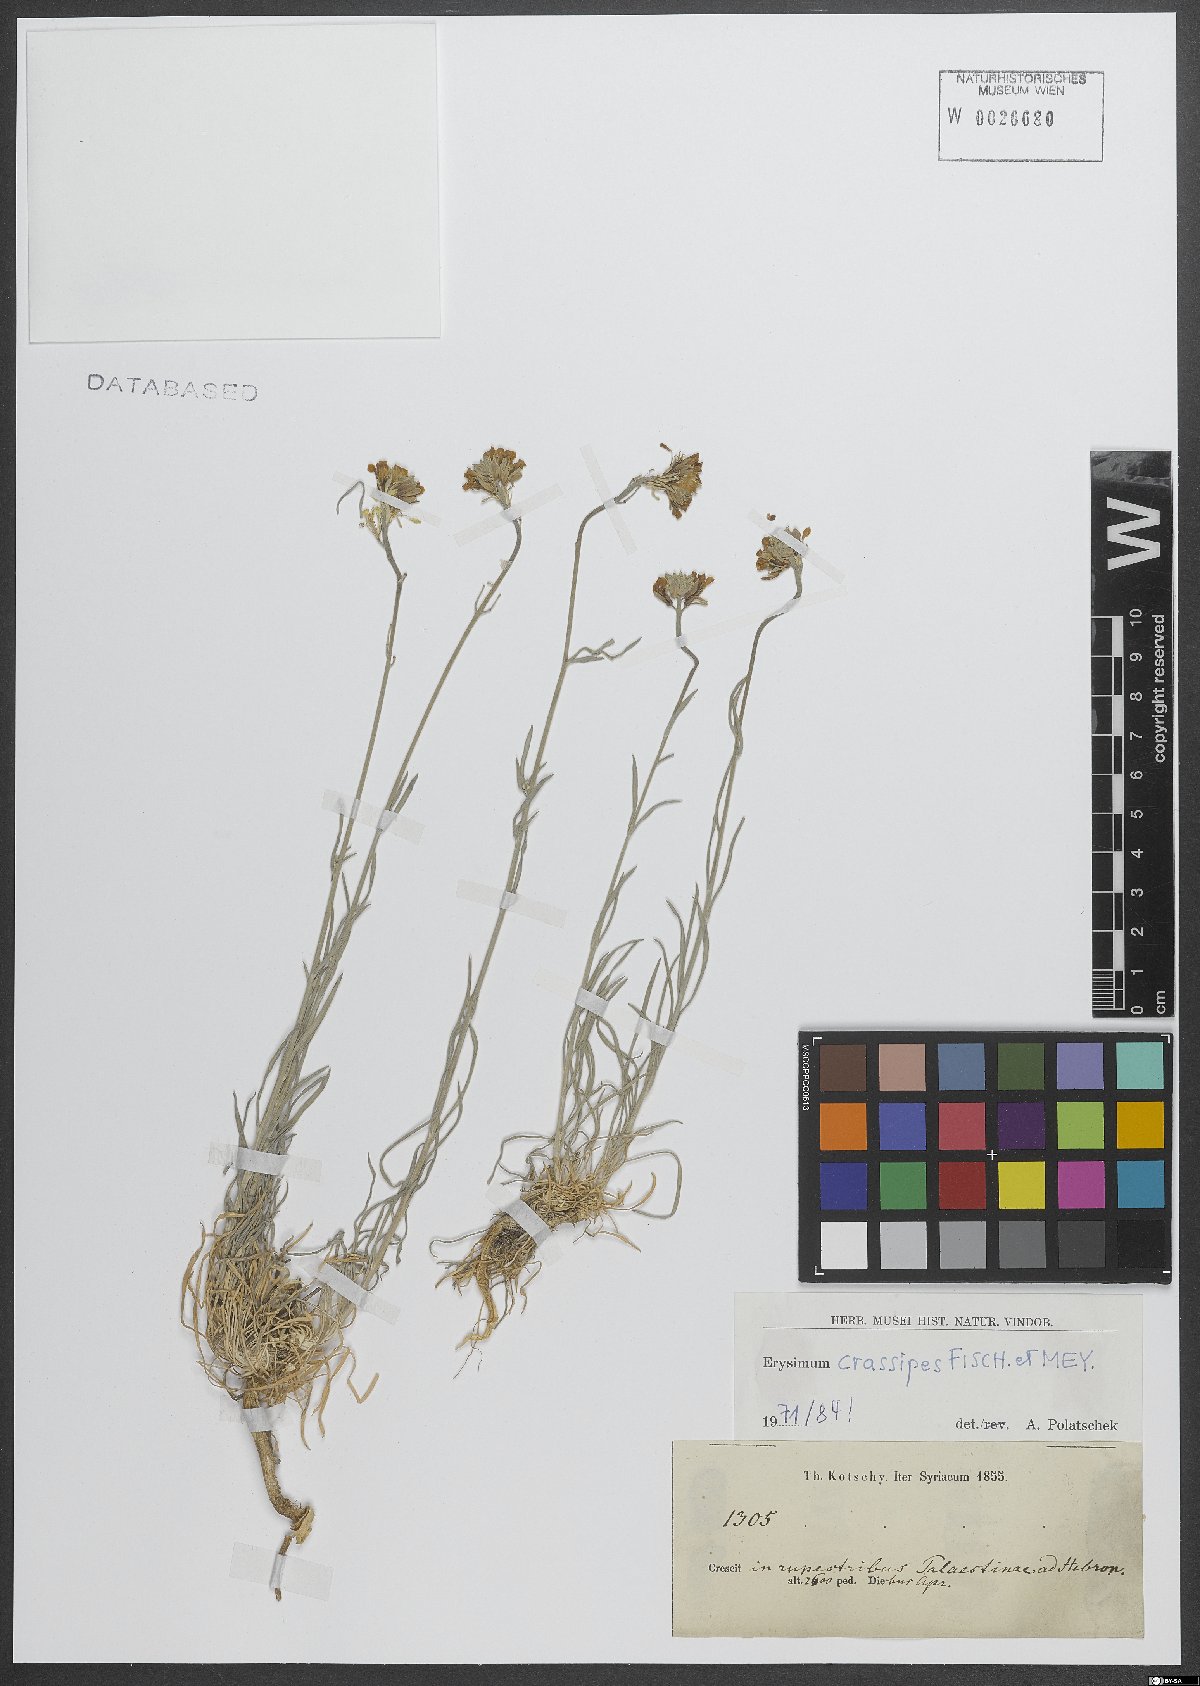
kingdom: Plantae
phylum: Tracheophyta
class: Magnoliopsida
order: Brassicales
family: Brassicaceae
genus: Erysimum
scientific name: Erysimum crassipes
